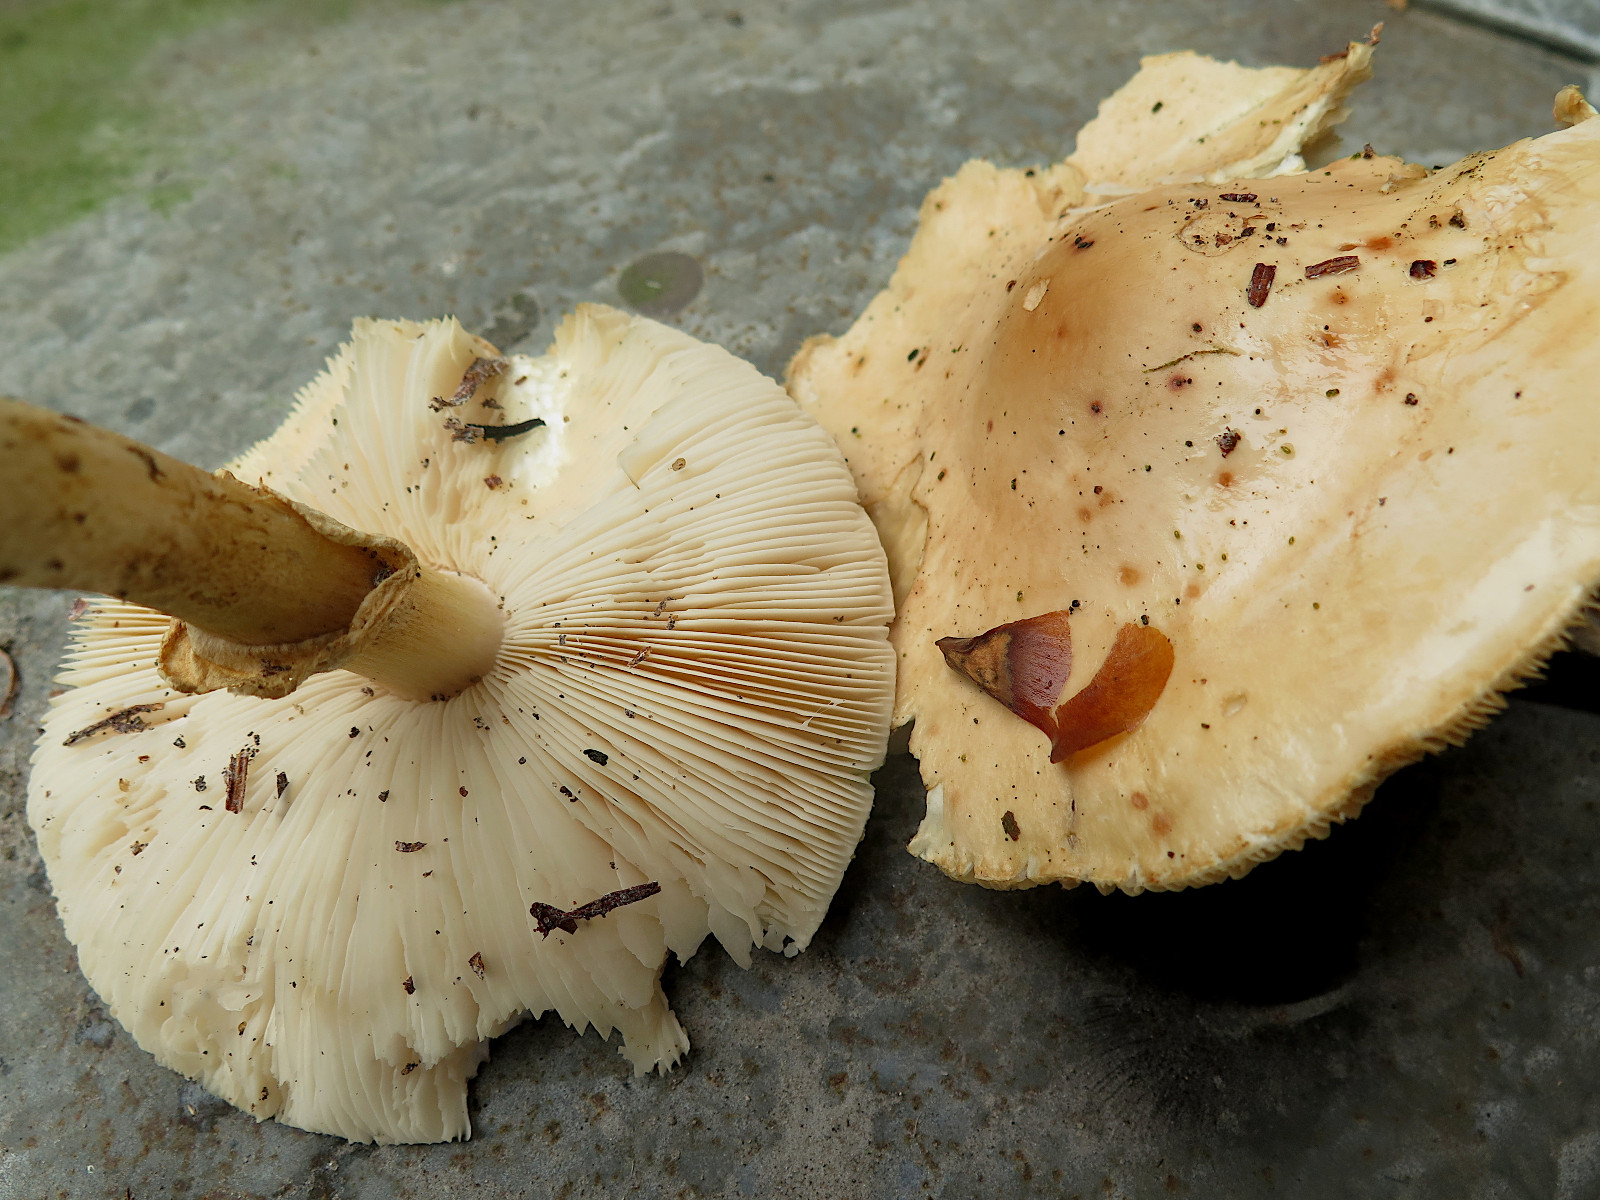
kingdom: Fungi
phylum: Basidiomycota
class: Agaricomycetes
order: Agaricales
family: Amanitaceae
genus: Limacellopsis
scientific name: Limacellopsis guttata
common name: tåre-snekkehat
